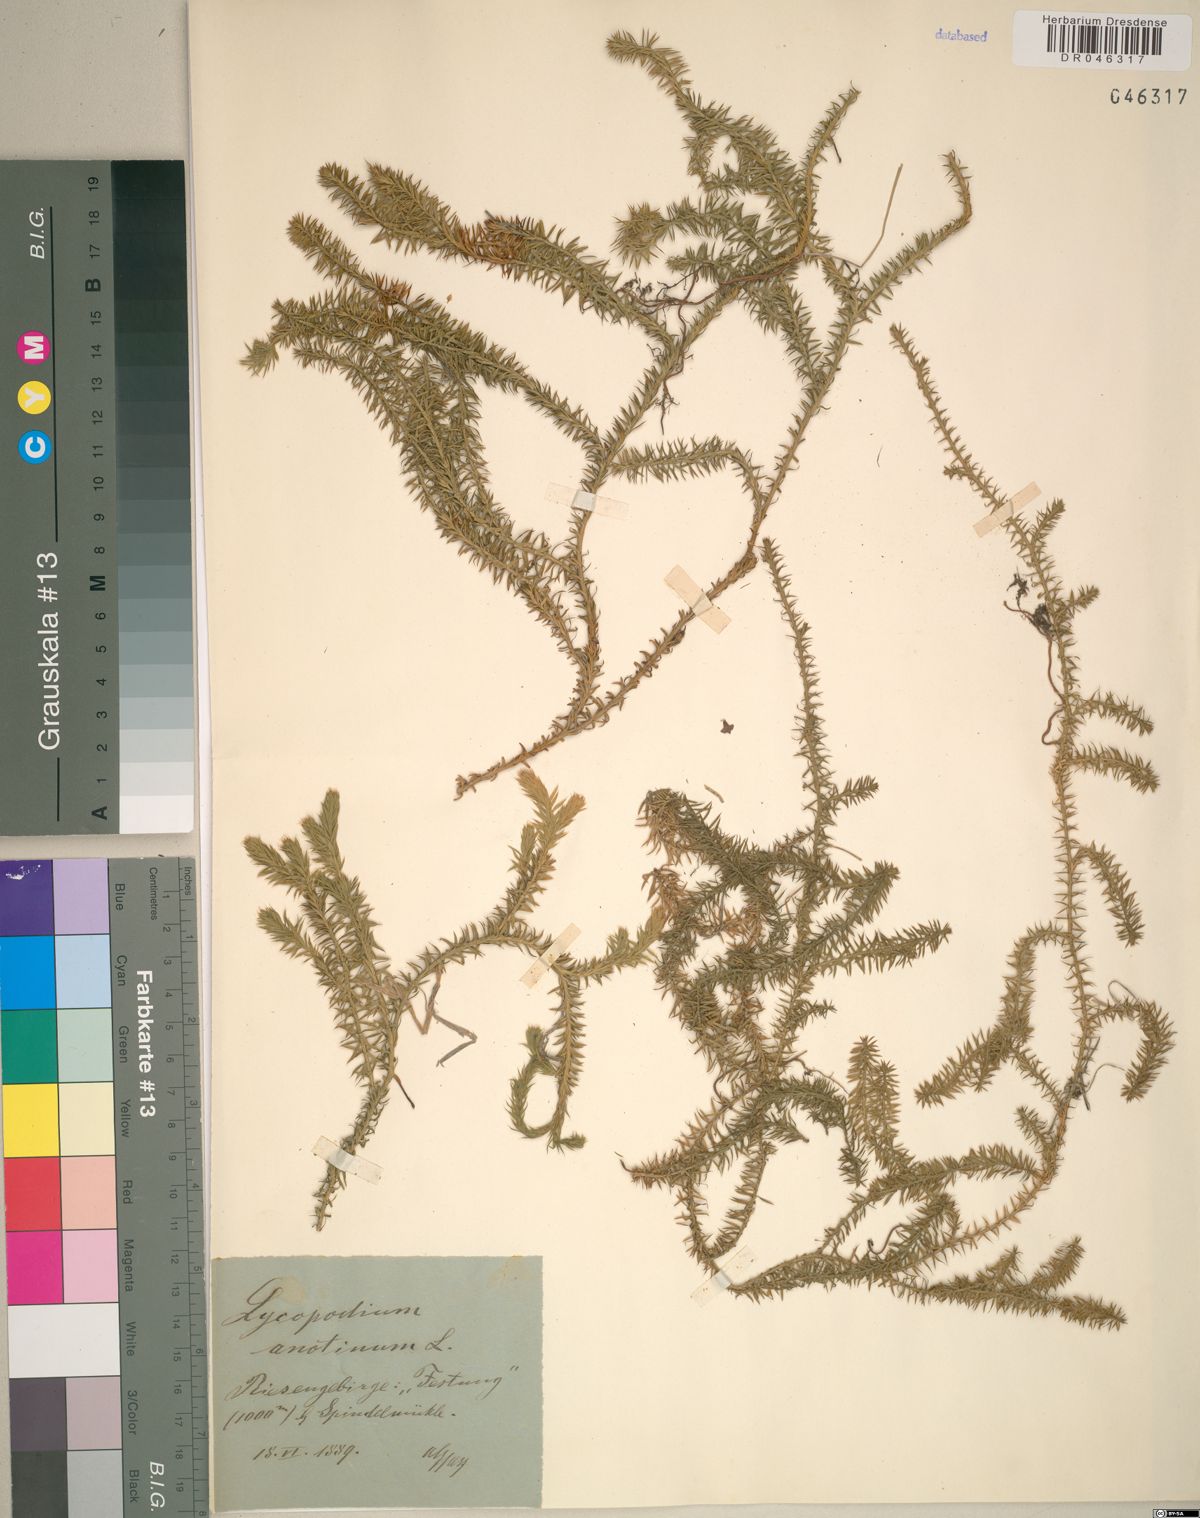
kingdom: Plantae
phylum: Tracheophyta
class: Lycopodiopsida
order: Lycopodiales
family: Lycopodiaceae
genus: Spinulum
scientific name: Spinulum annotinum
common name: Interrupted club-moss
